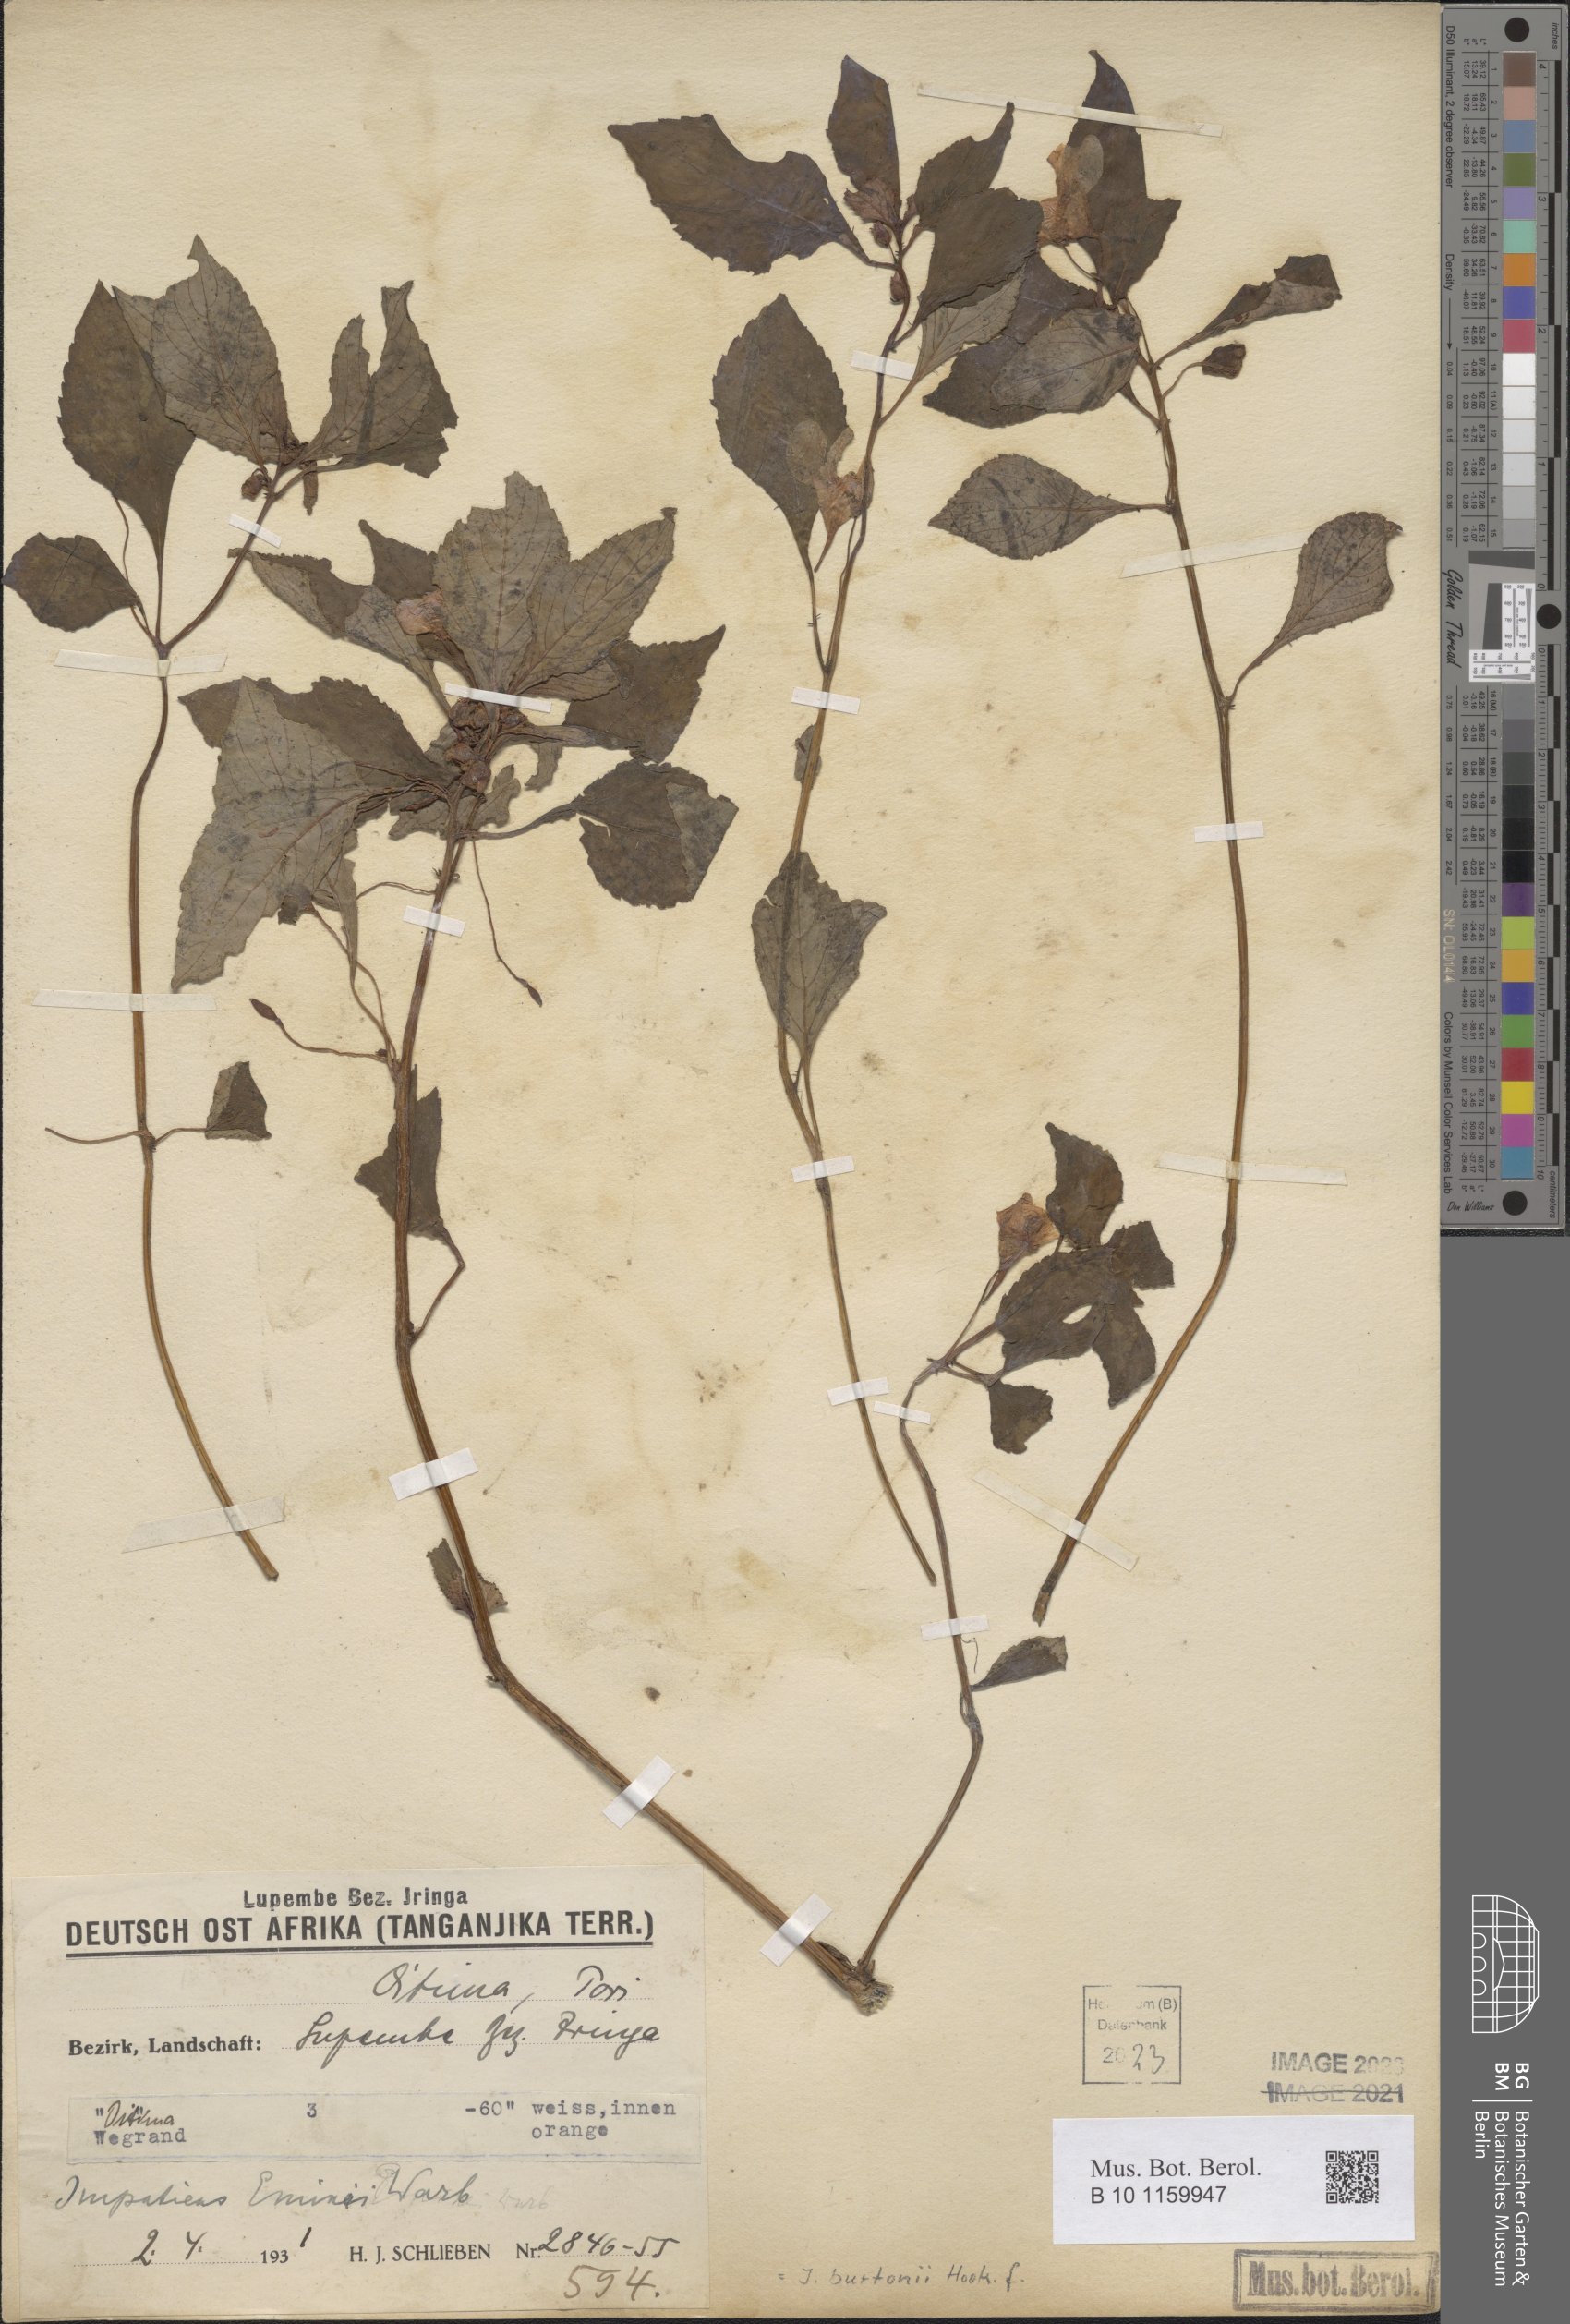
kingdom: Plantae
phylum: Tracheophyta
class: Magnoliopsida
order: Ericales
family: Balsaminaceae
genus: Impatiens
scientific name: Impatiens burtonii
